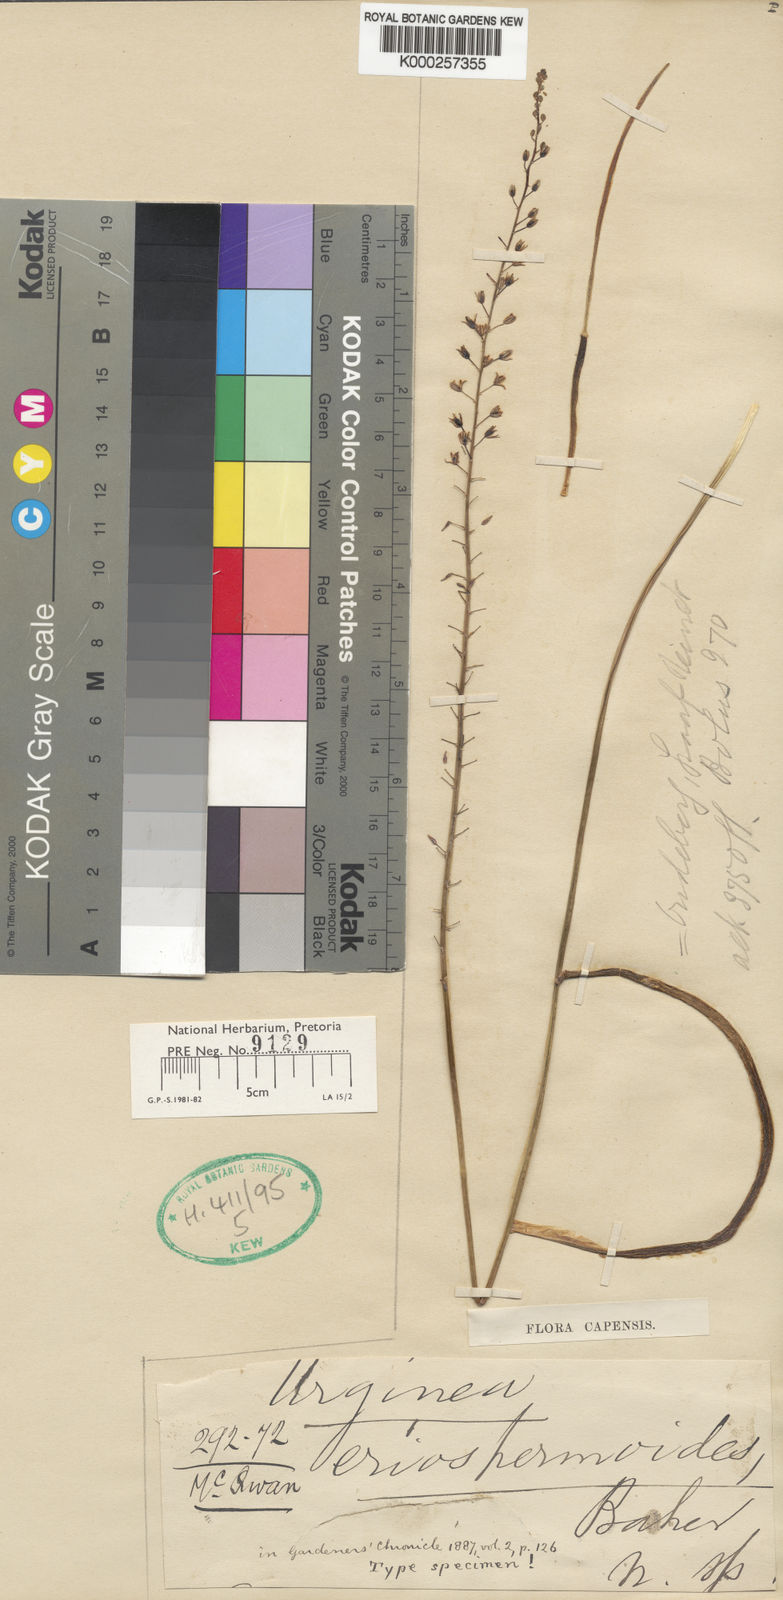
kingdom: Plantae
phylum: Tracheophyta
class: Liliopsida
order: Asparagales
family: Asparagaceae
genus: Drimia
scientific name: Drimia anomala
